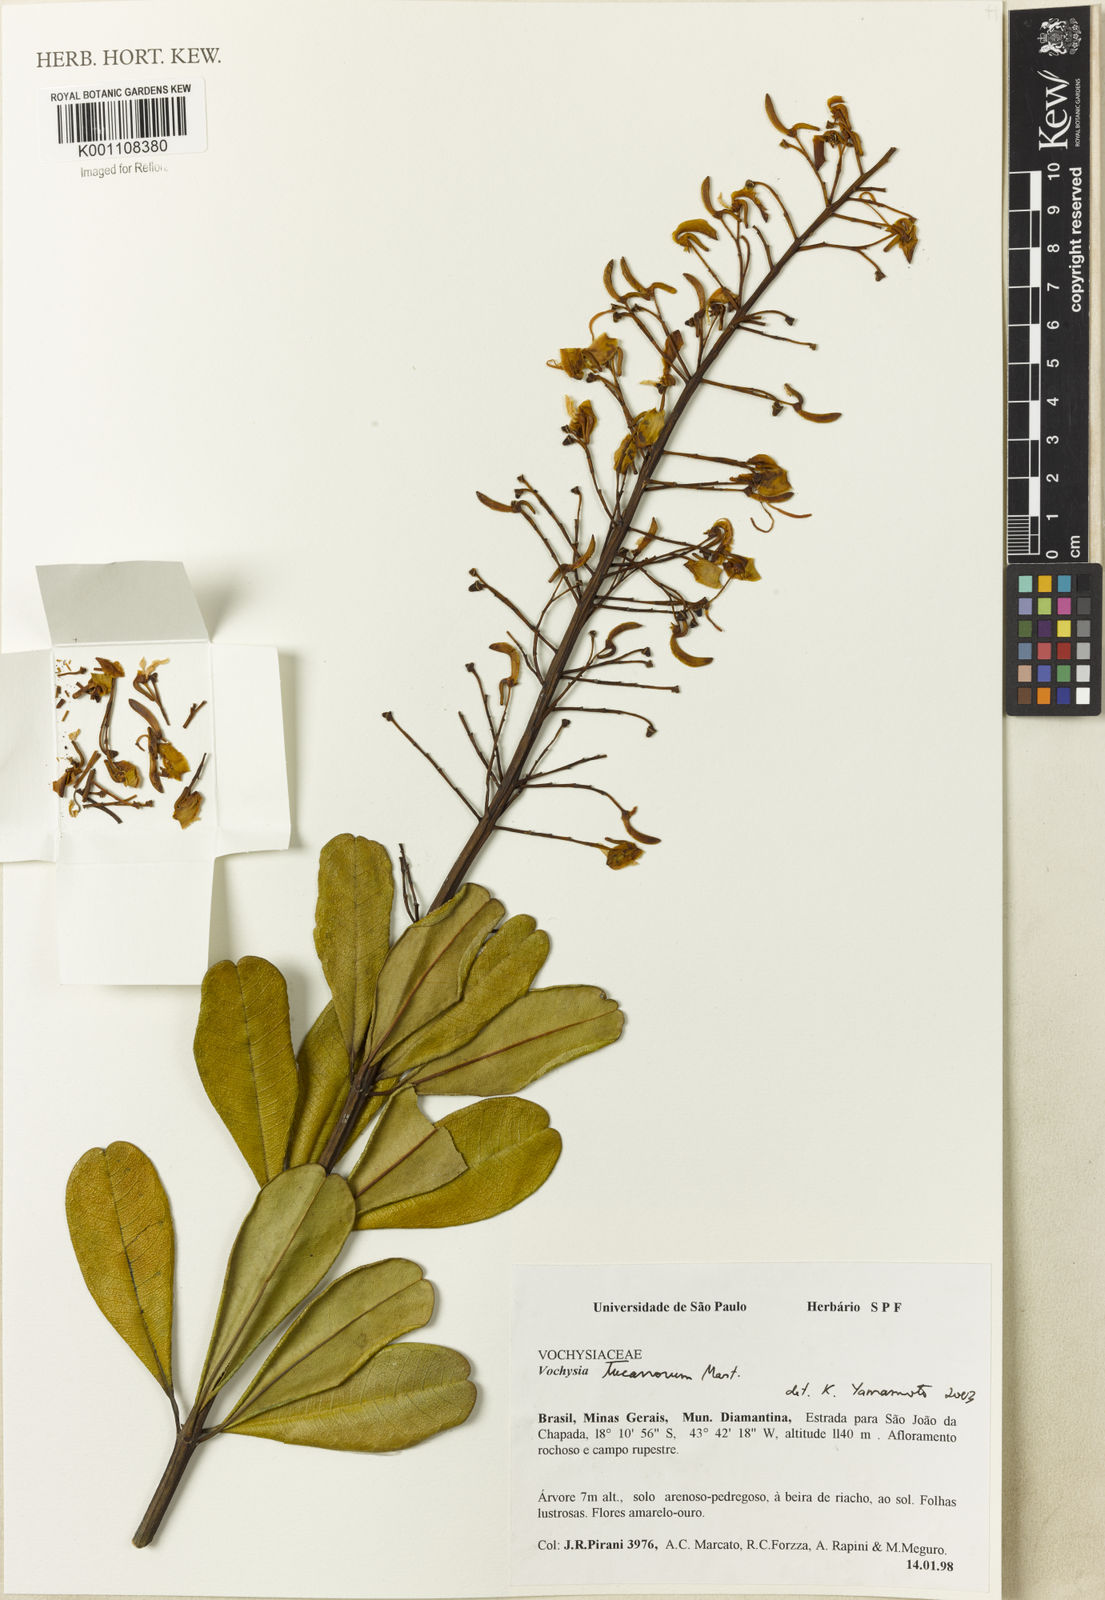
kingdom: Plantae
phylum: Tracheophyta
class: Magnoliopsida
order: Myrtales
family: Vochysiaceae
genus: Vochysia
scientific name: Vochysia tucanorum
